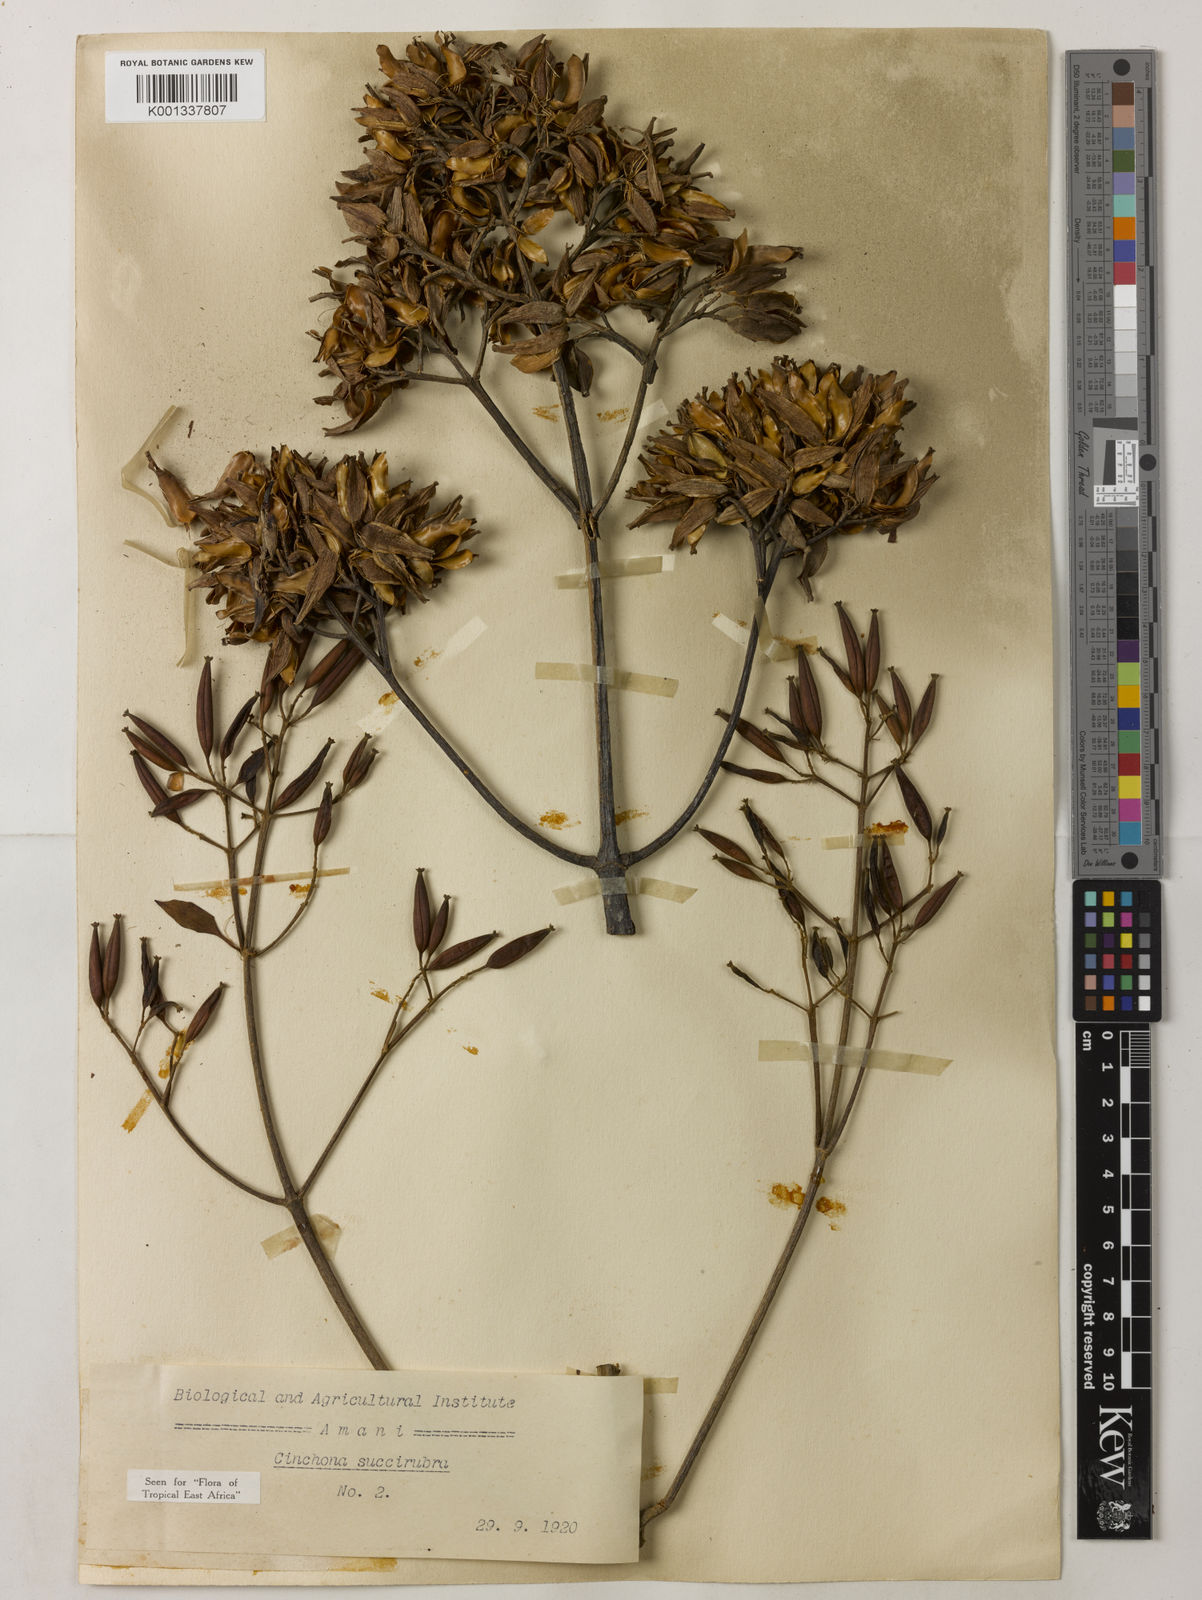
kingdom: Plantae
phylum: Tracheophyta
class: Magnoliopsida
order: Gentianales
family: Rubiaceae
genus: Cinchona
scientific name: Cinchona pubescens
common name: Quinine
